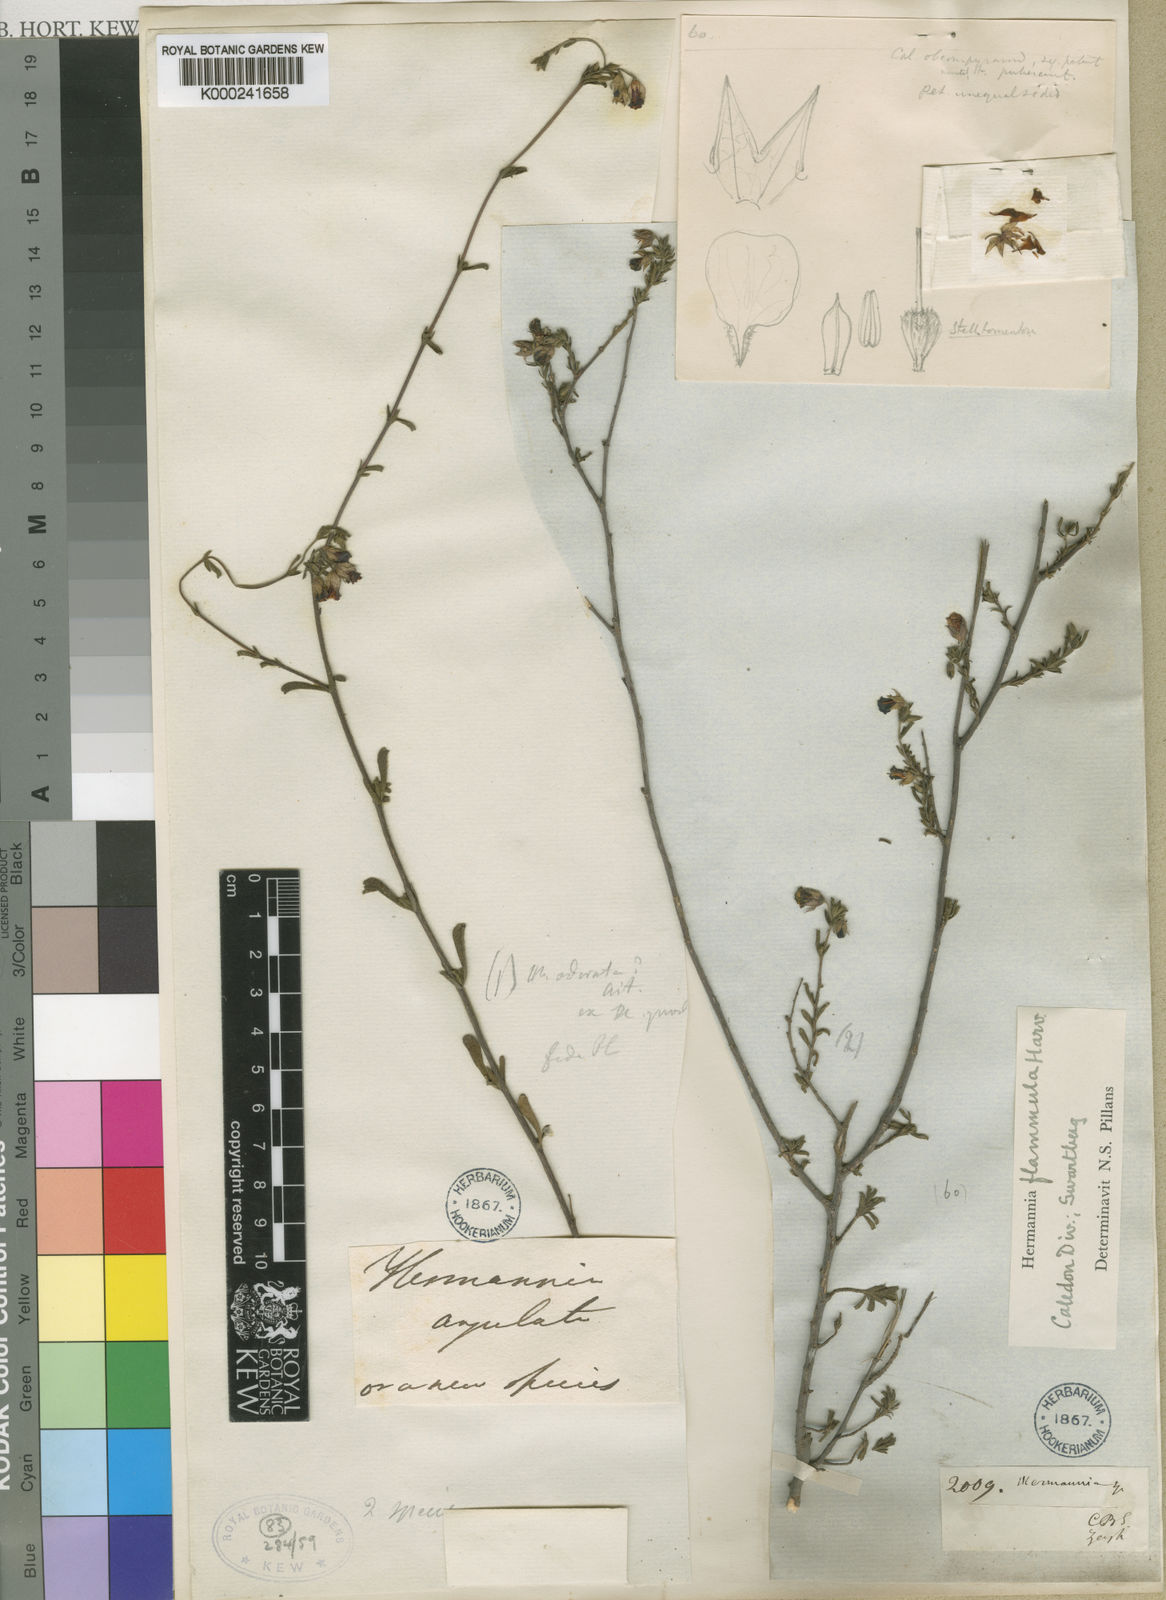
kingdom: Plantae
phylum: Tracheophyta
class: Magnoliopsida
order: Malvales
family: Malvaceae
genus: Hermannia
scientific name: Hermannia flammula
